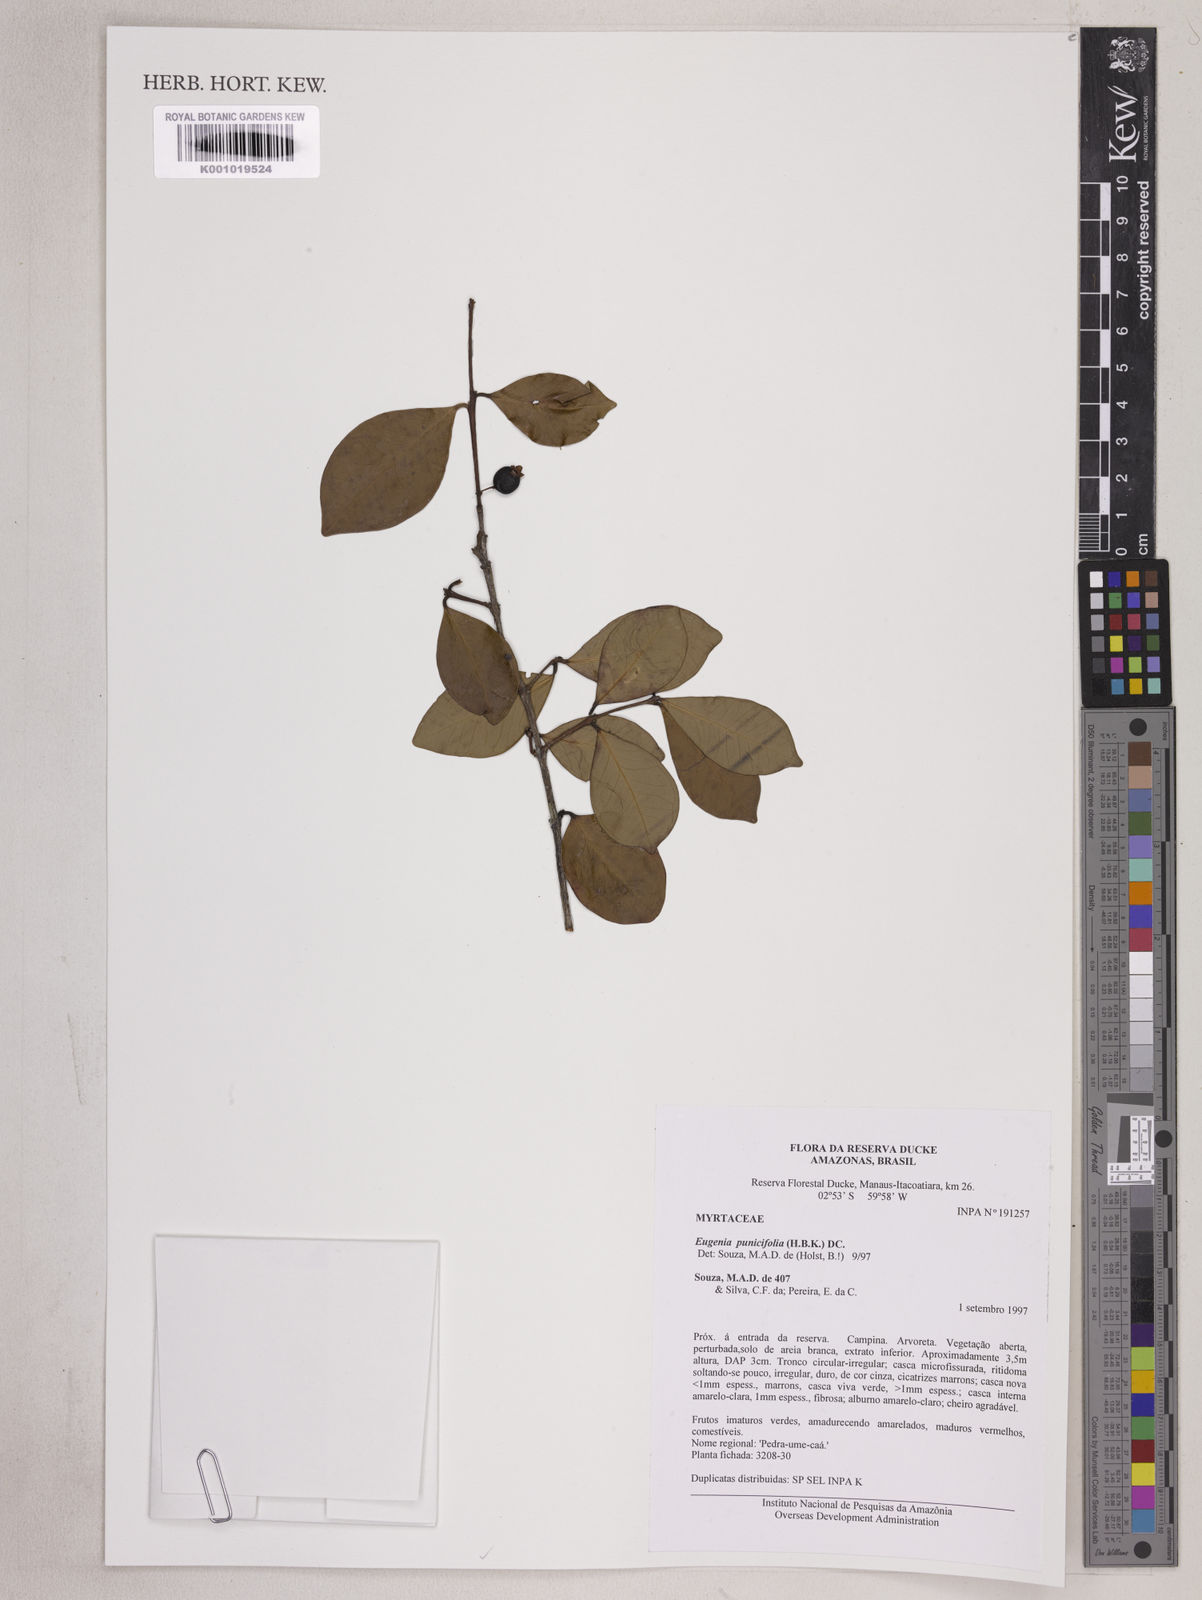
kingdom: Plantae
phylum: Tracheophyta
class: Magnoliopsida
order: Myrtales
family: Myrtaceae
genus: Eugenia
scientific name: Eugenia punicifolia
